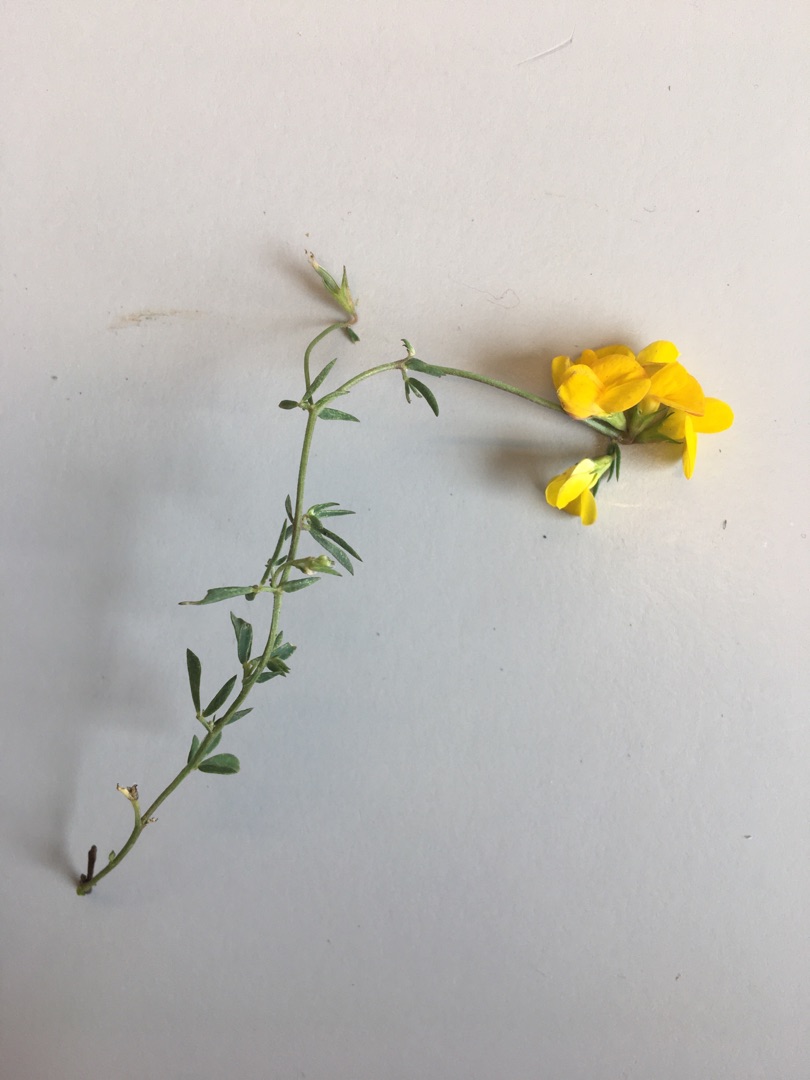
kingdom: Plantae
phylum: Tracheophyta
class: Magnoliopsida
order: Fabales
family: Fabaceae
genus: Lotus
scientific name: Lotus tenuis
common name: Smalbladet kællingetand
